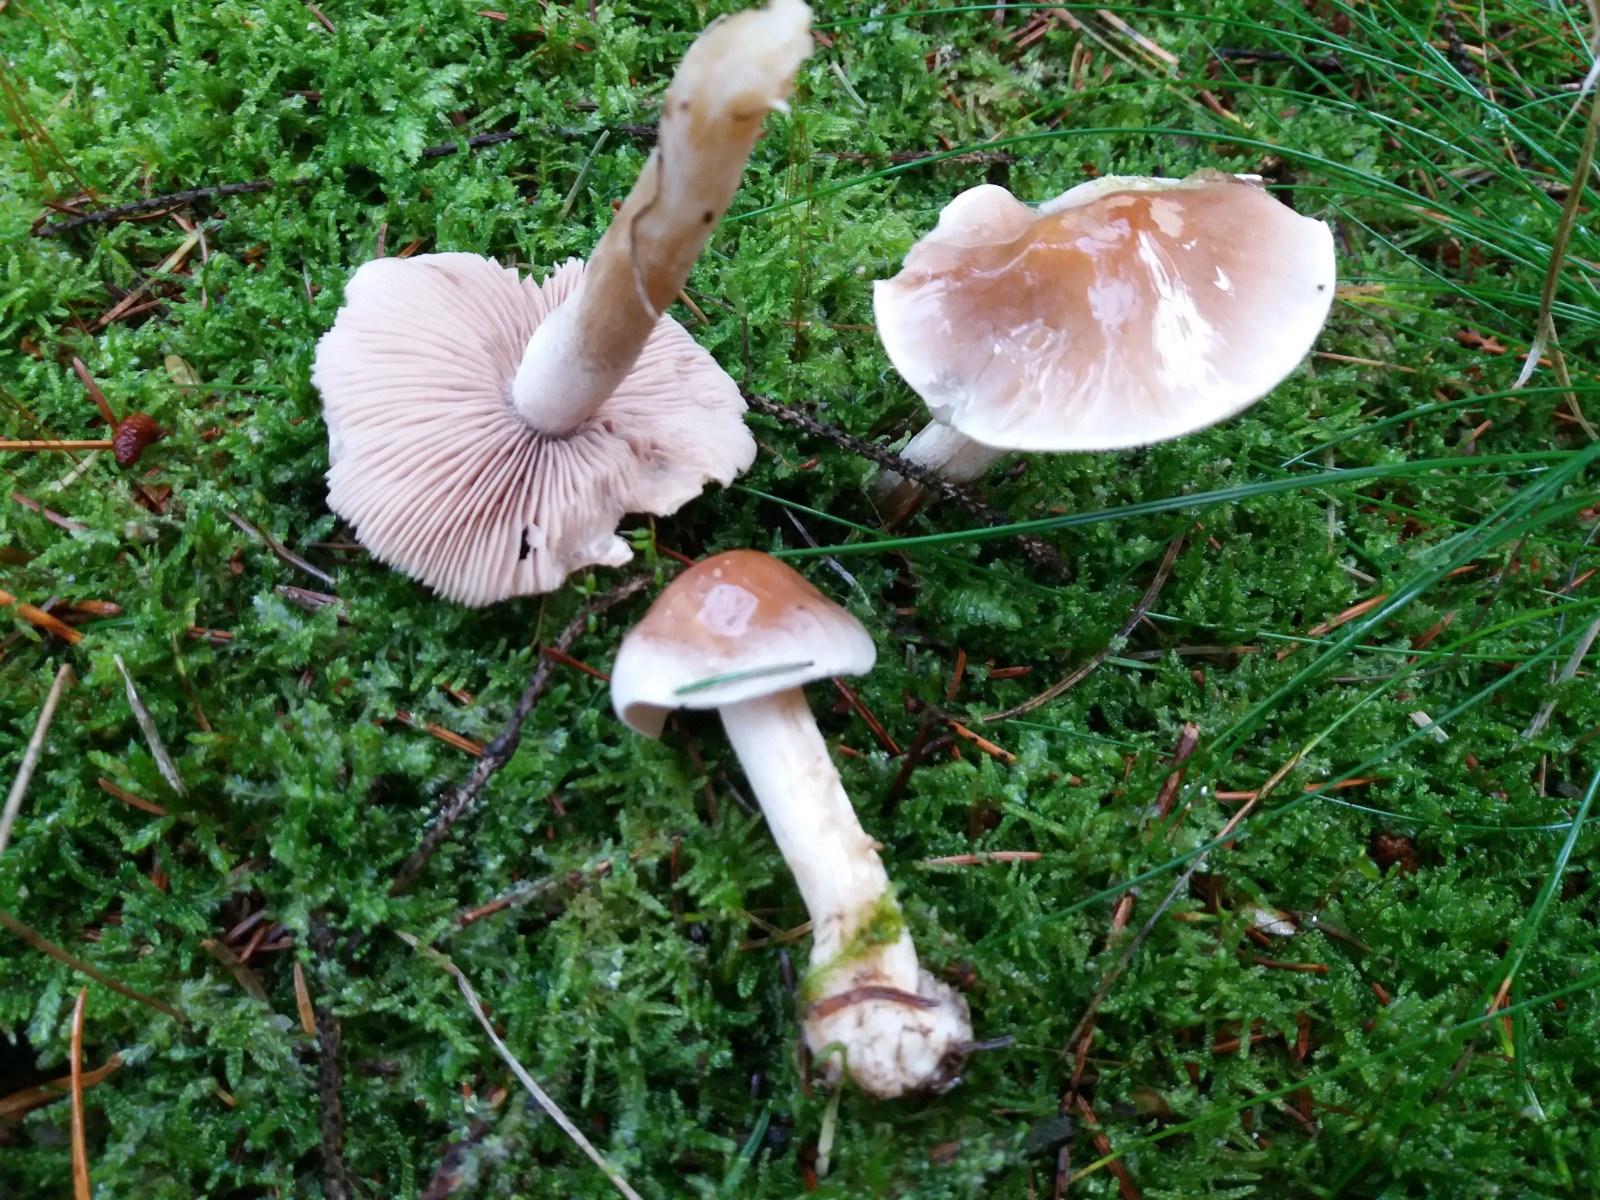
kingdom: Fungi
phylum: Basidiomycota
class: Agaricomycetes
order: Agaricales
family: Hymenogastraceae
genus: Hebeloma
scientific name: Hebeloma incarnatulum
